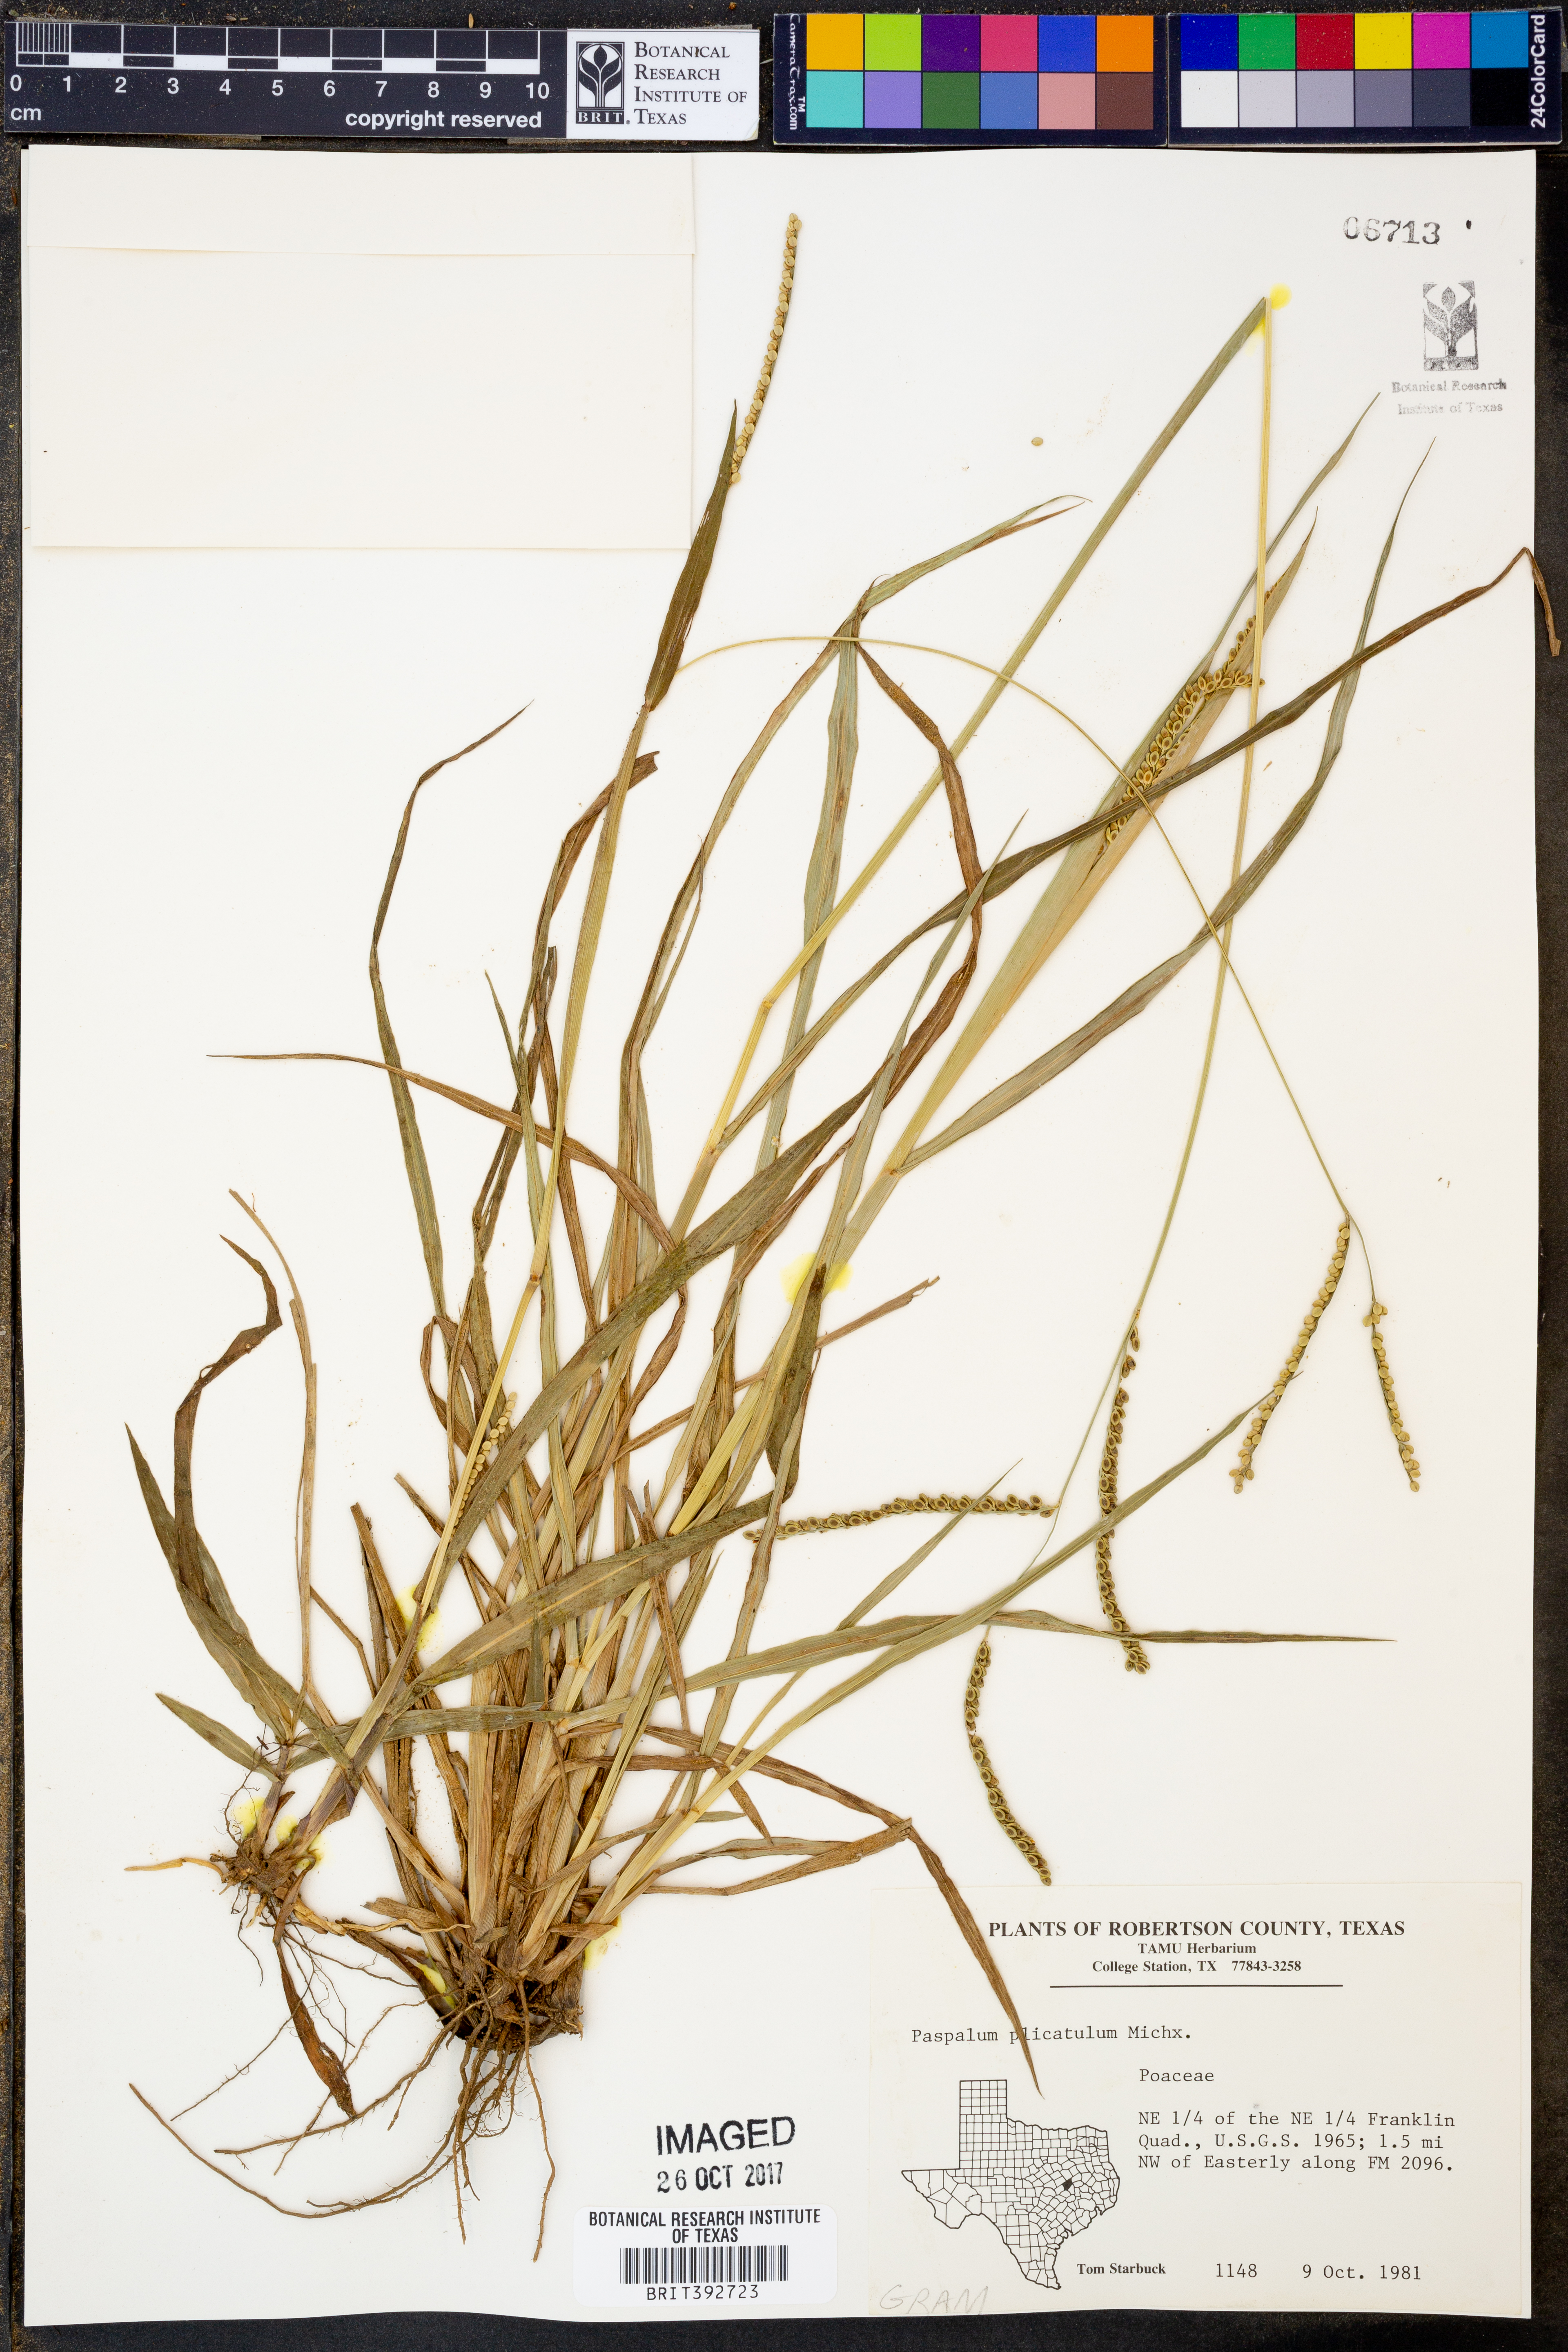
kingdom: Plantae
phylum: Tracheophyta
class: Liliopsida
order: Poales
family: Poaceae
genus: Paspalum
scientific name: Paspalum plicatulum
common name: Top paspalum
